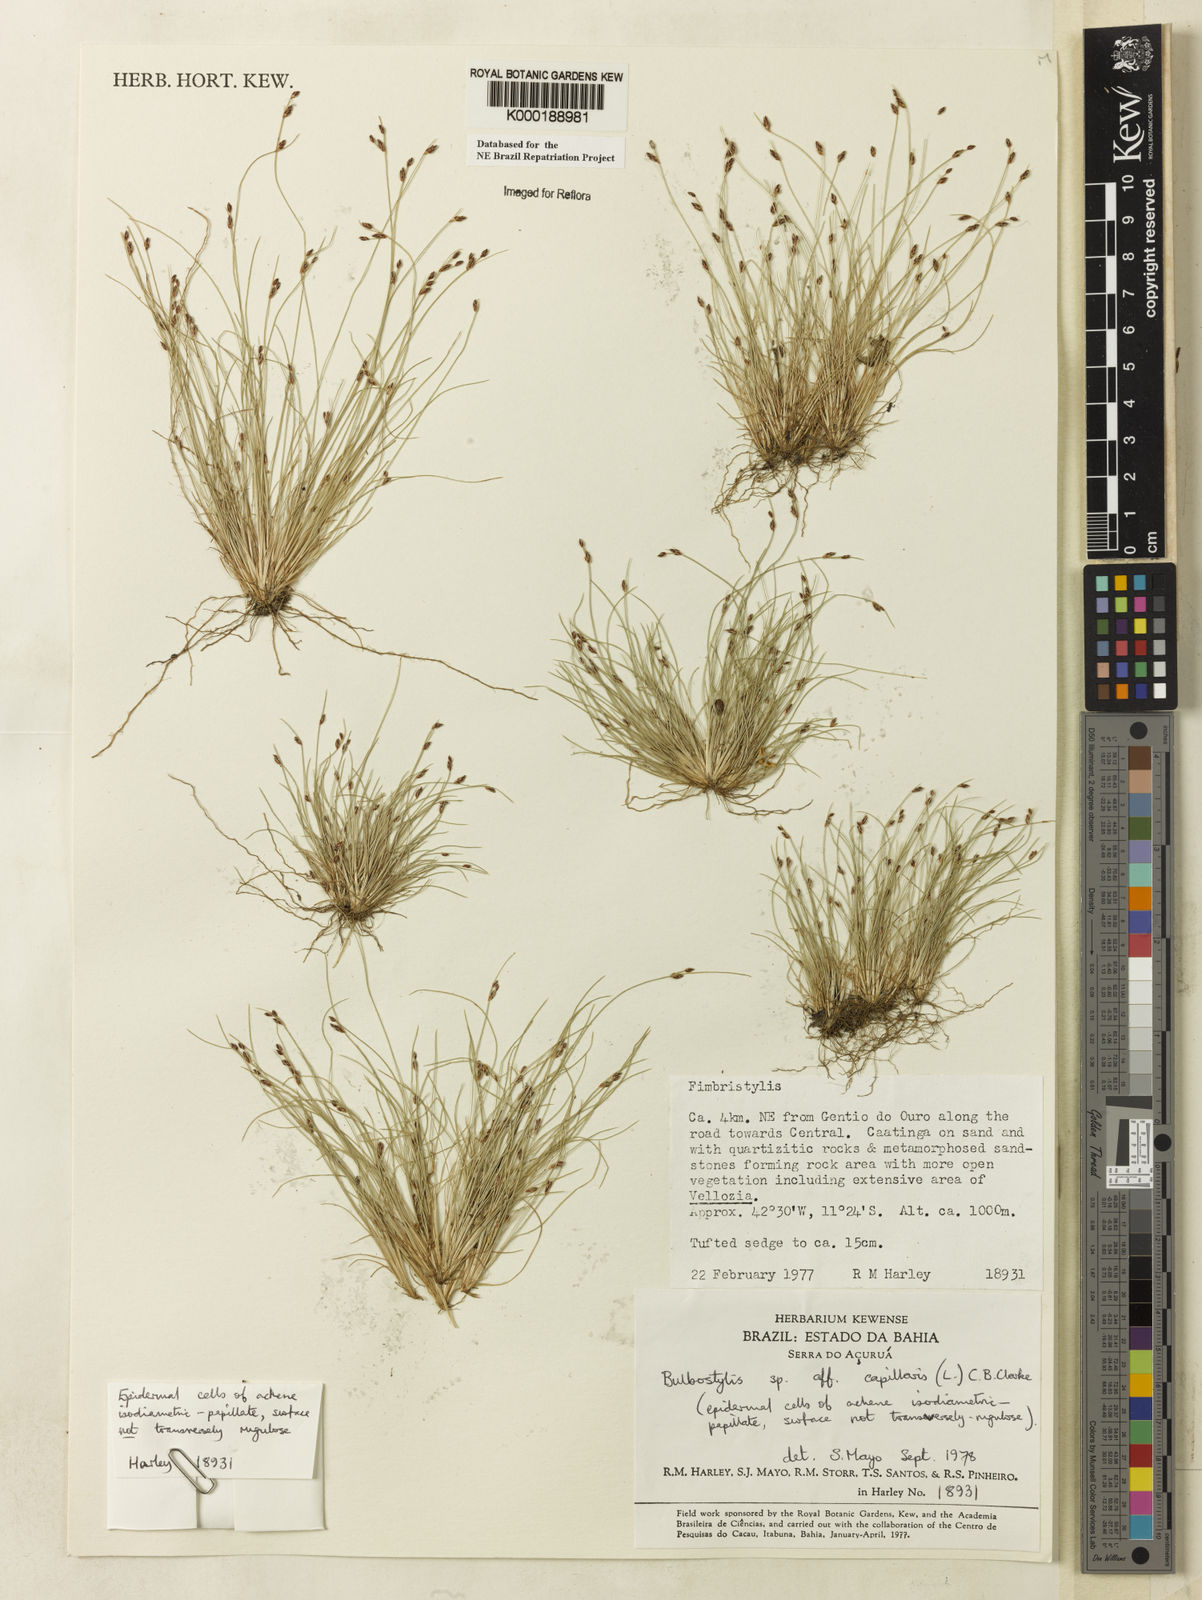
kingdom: Plantae
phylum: Tracheophyta
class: Liliopsida
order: Poales
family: Cyperaceae
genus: Bulbostylis
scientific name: Bulbostylis capillaris
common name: Densetuft hairsedge
